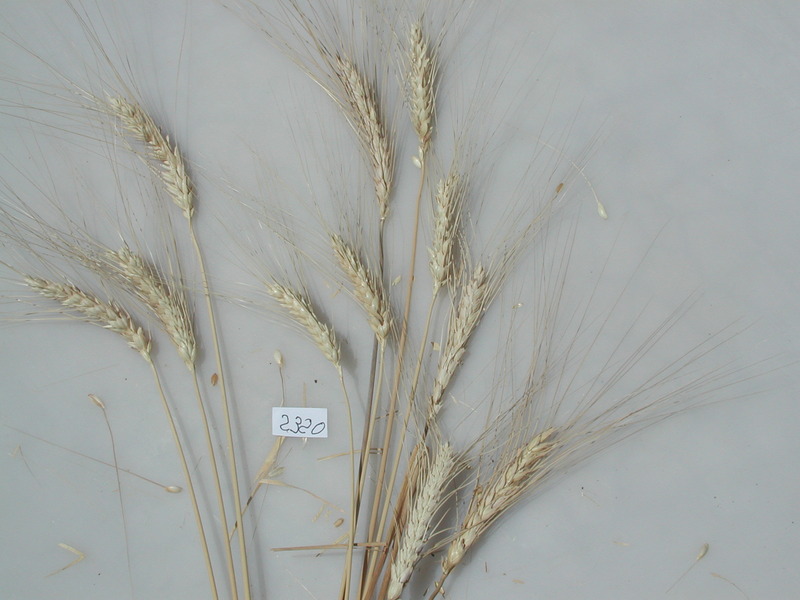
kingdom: Plantae
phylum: Tracheophyta
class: Liliopsida
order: Poales
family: Poaceae
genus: Triticum
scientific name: Triticum turgidum
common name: Wheat
